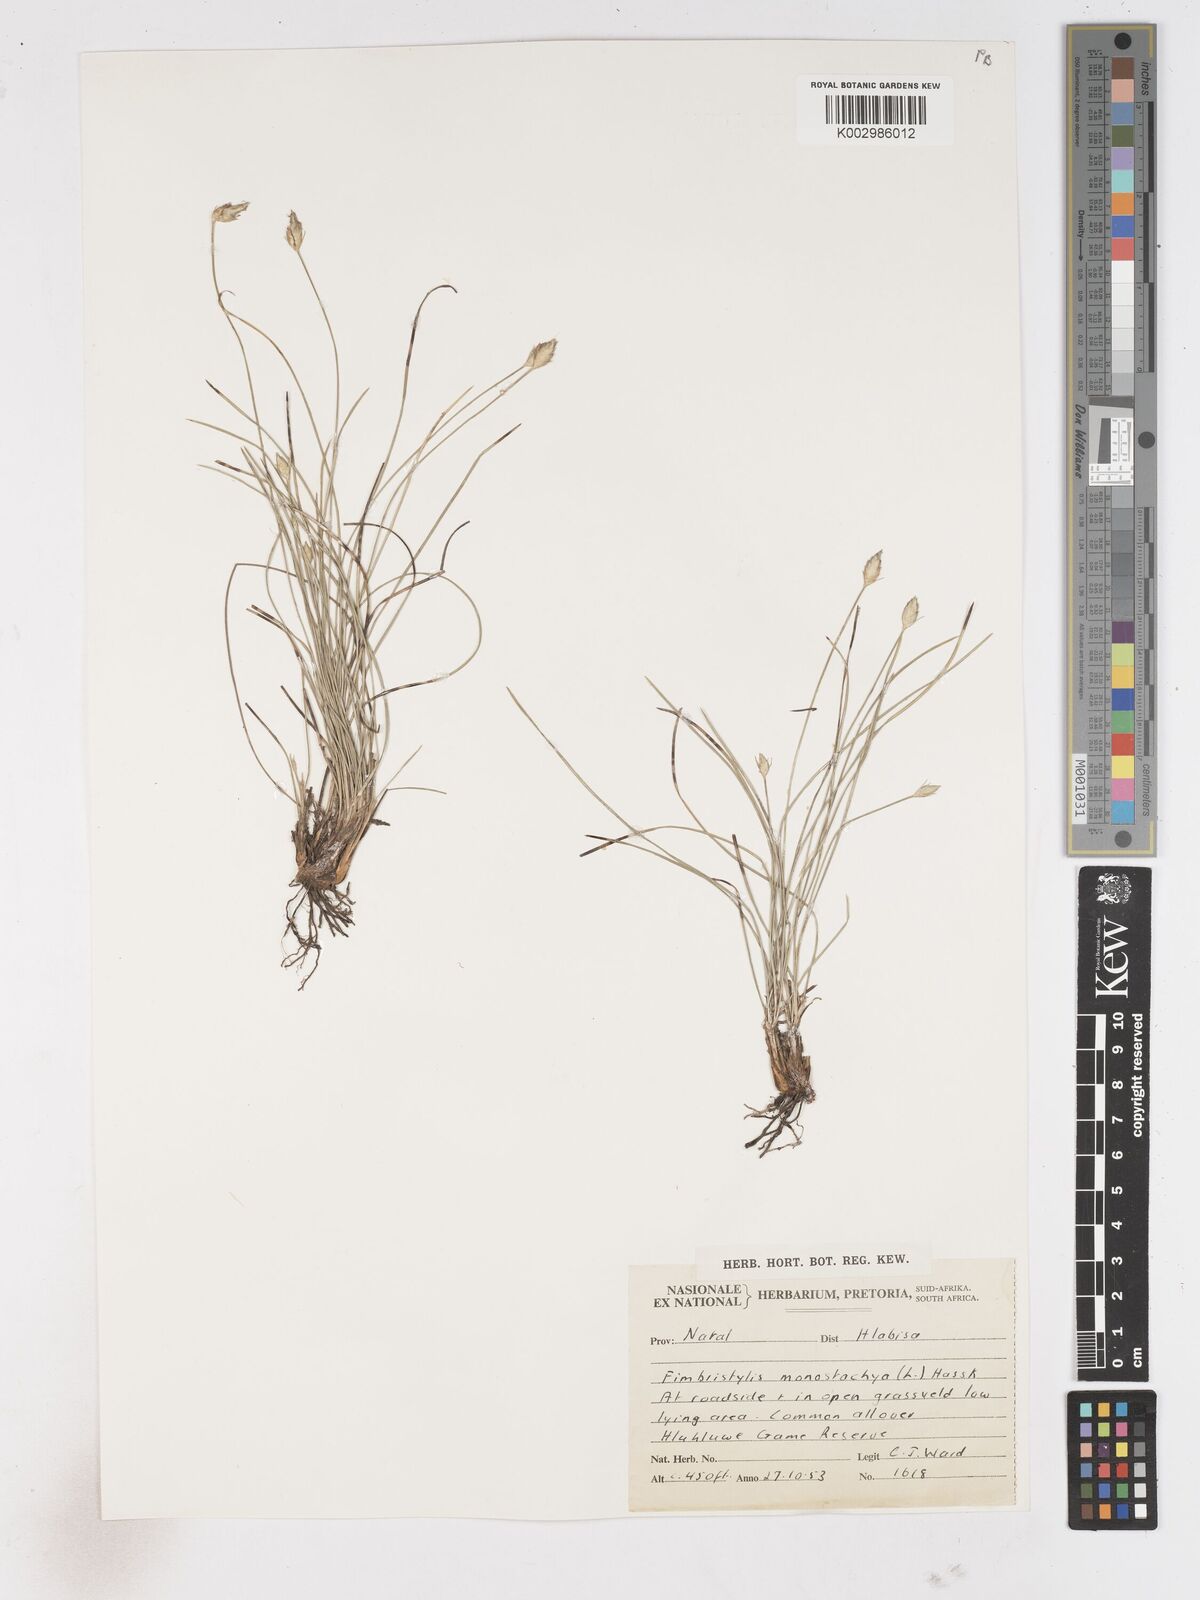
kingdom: Plantae
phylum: Tracheophyta
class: Liliopsida
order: Poales
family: Cyperaceae
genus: Abildgaardia
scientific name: Abildgaardia ovata
